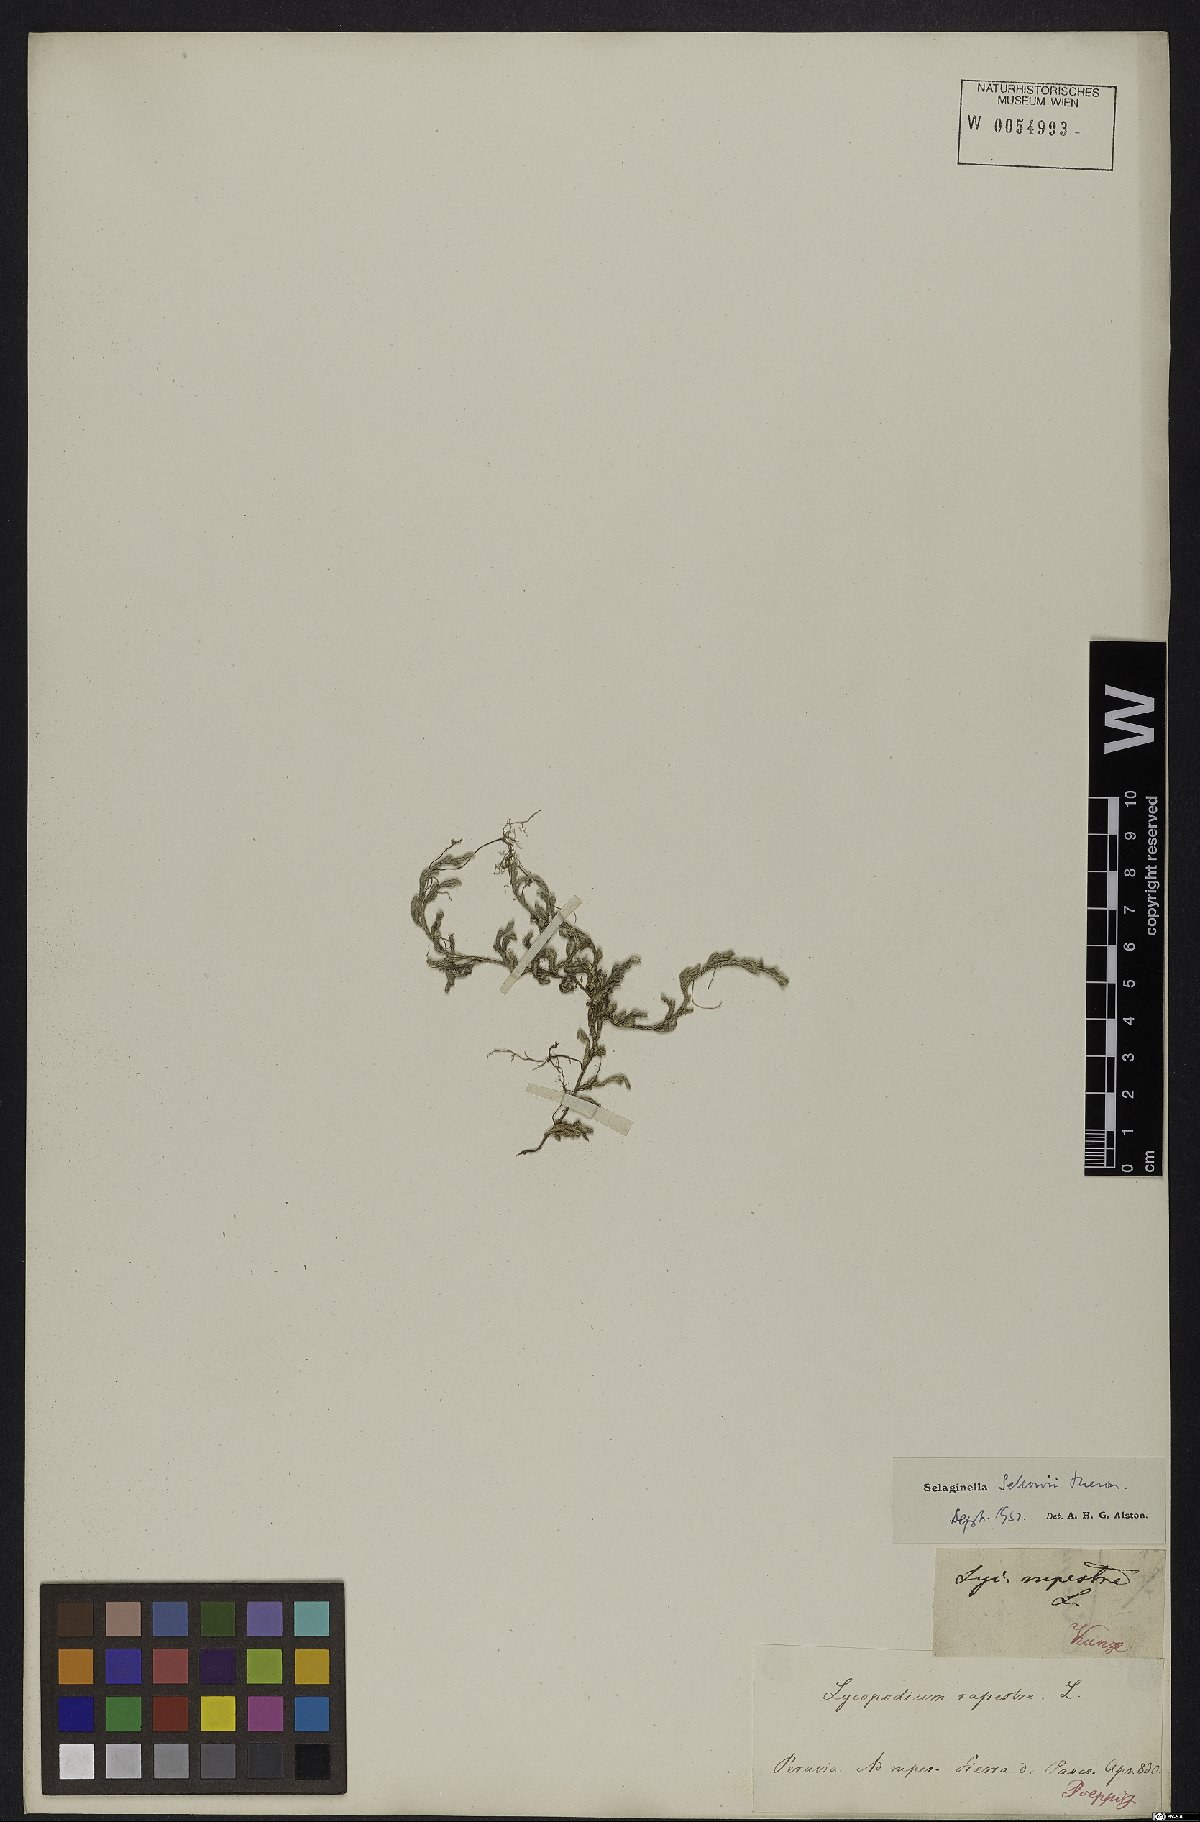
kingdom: Plantae
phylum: Tracheophyta
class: Lycopodiopsida
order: Selaginellales
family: Selaginellaceae
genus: Selaginella
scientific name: Selaginella sellowii
